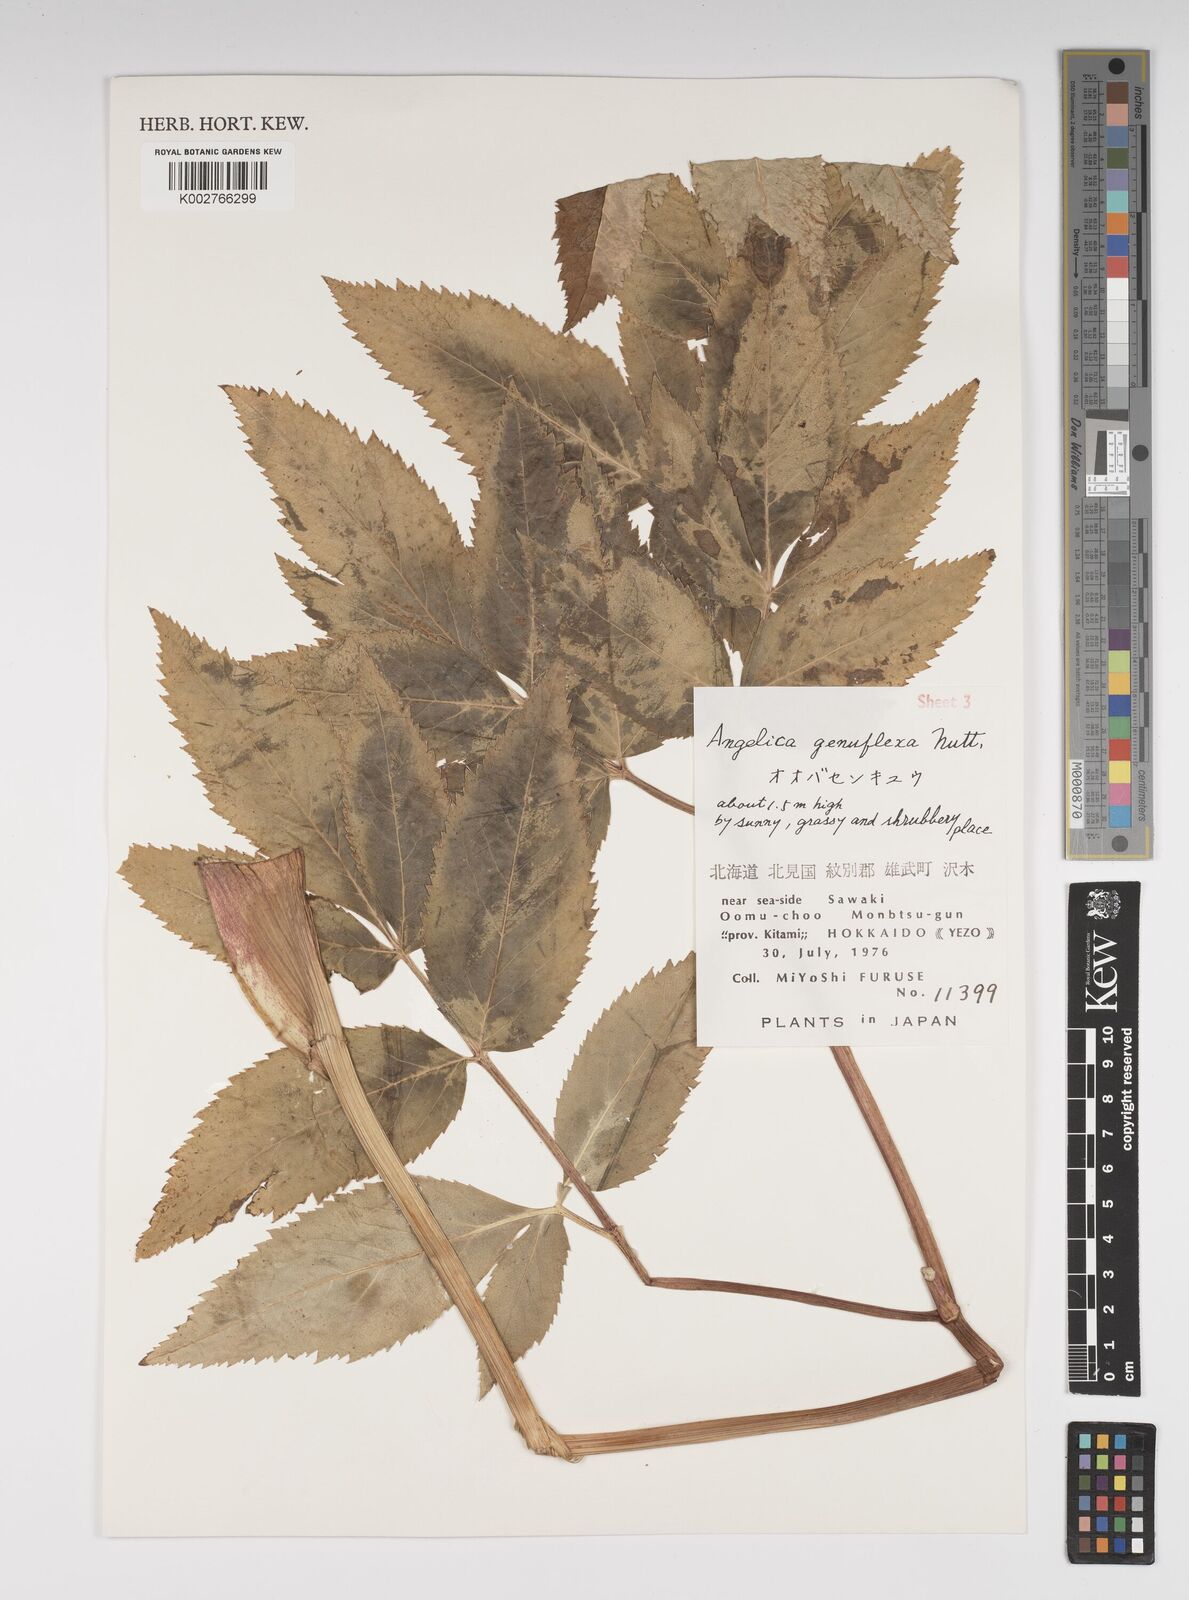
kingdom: Plantae
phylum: Tracheophyta
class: Magnoliopsida
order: Apiales
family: Apiaceae
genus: Angelica
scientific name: Angelica genuflexa
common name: Kneeling angelica
